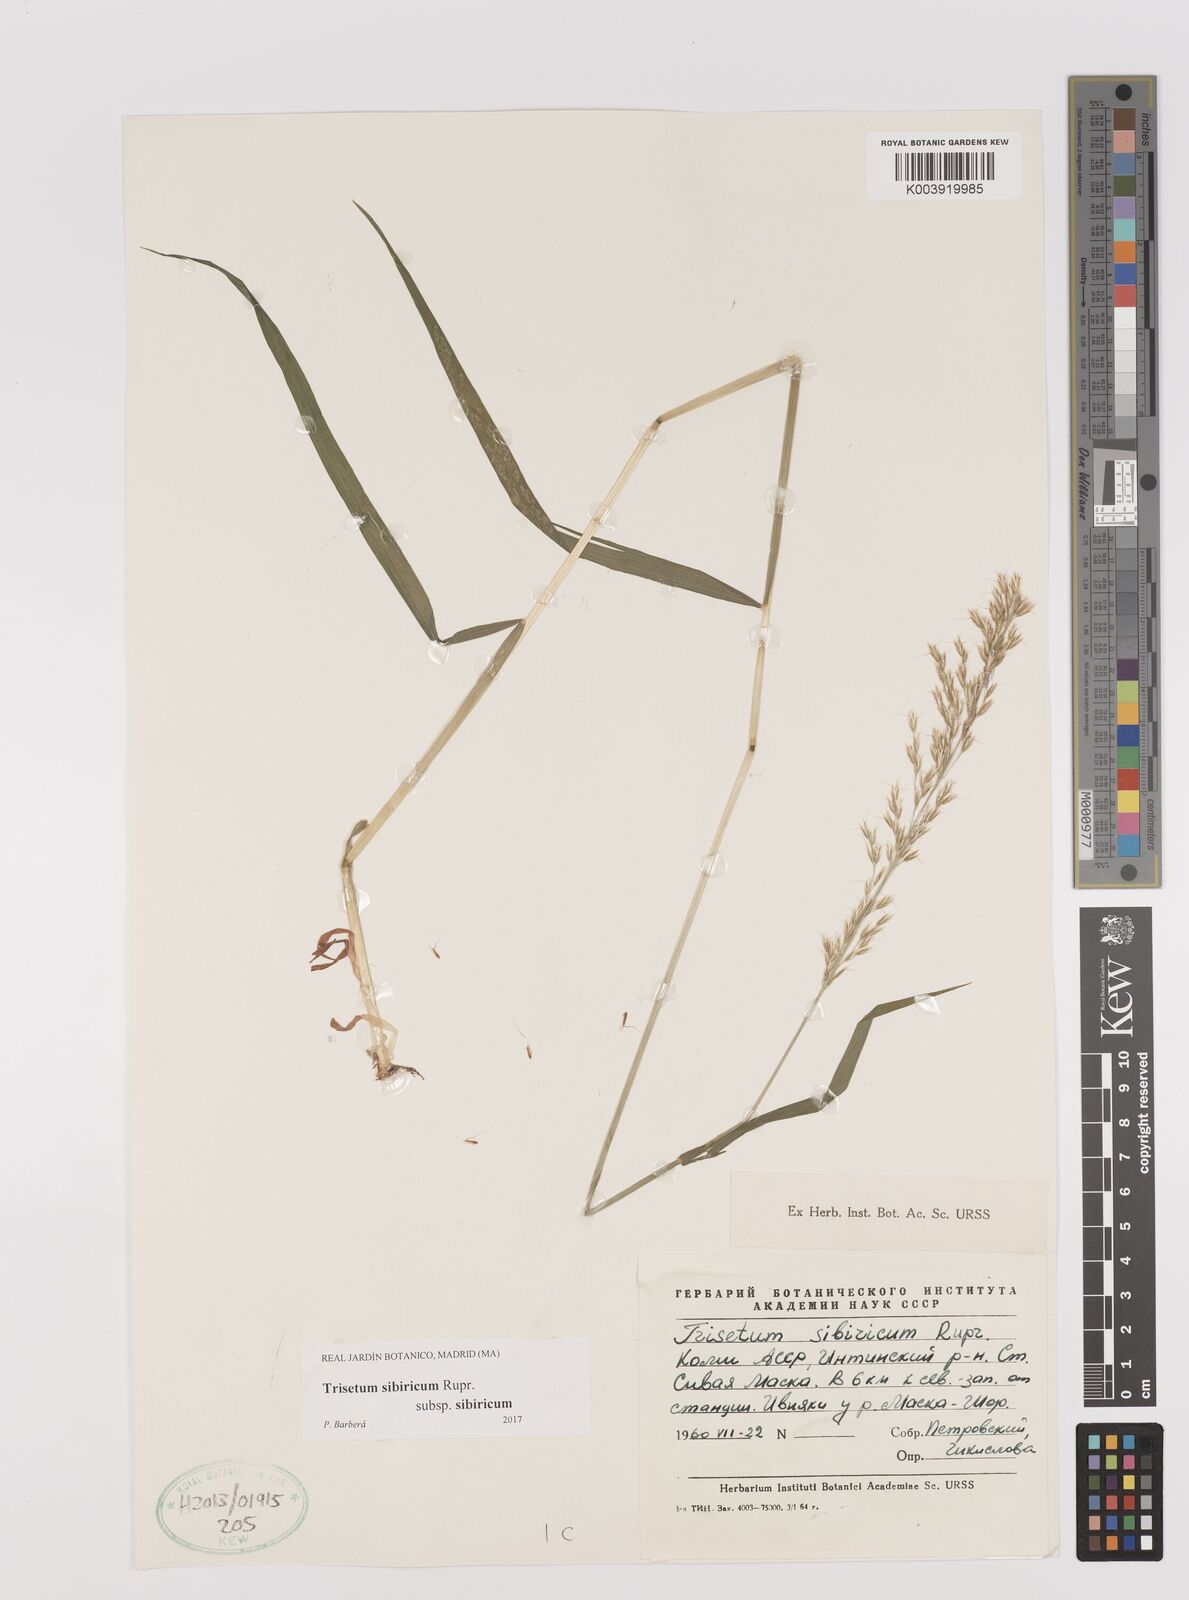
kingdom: Plantae
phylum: Tracheophyta
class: Liliopsida
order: Poales
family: Poaceae
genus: Sibirotrisetum
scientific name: Sibirotrisetum sibiricum
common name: Siberian false oat
